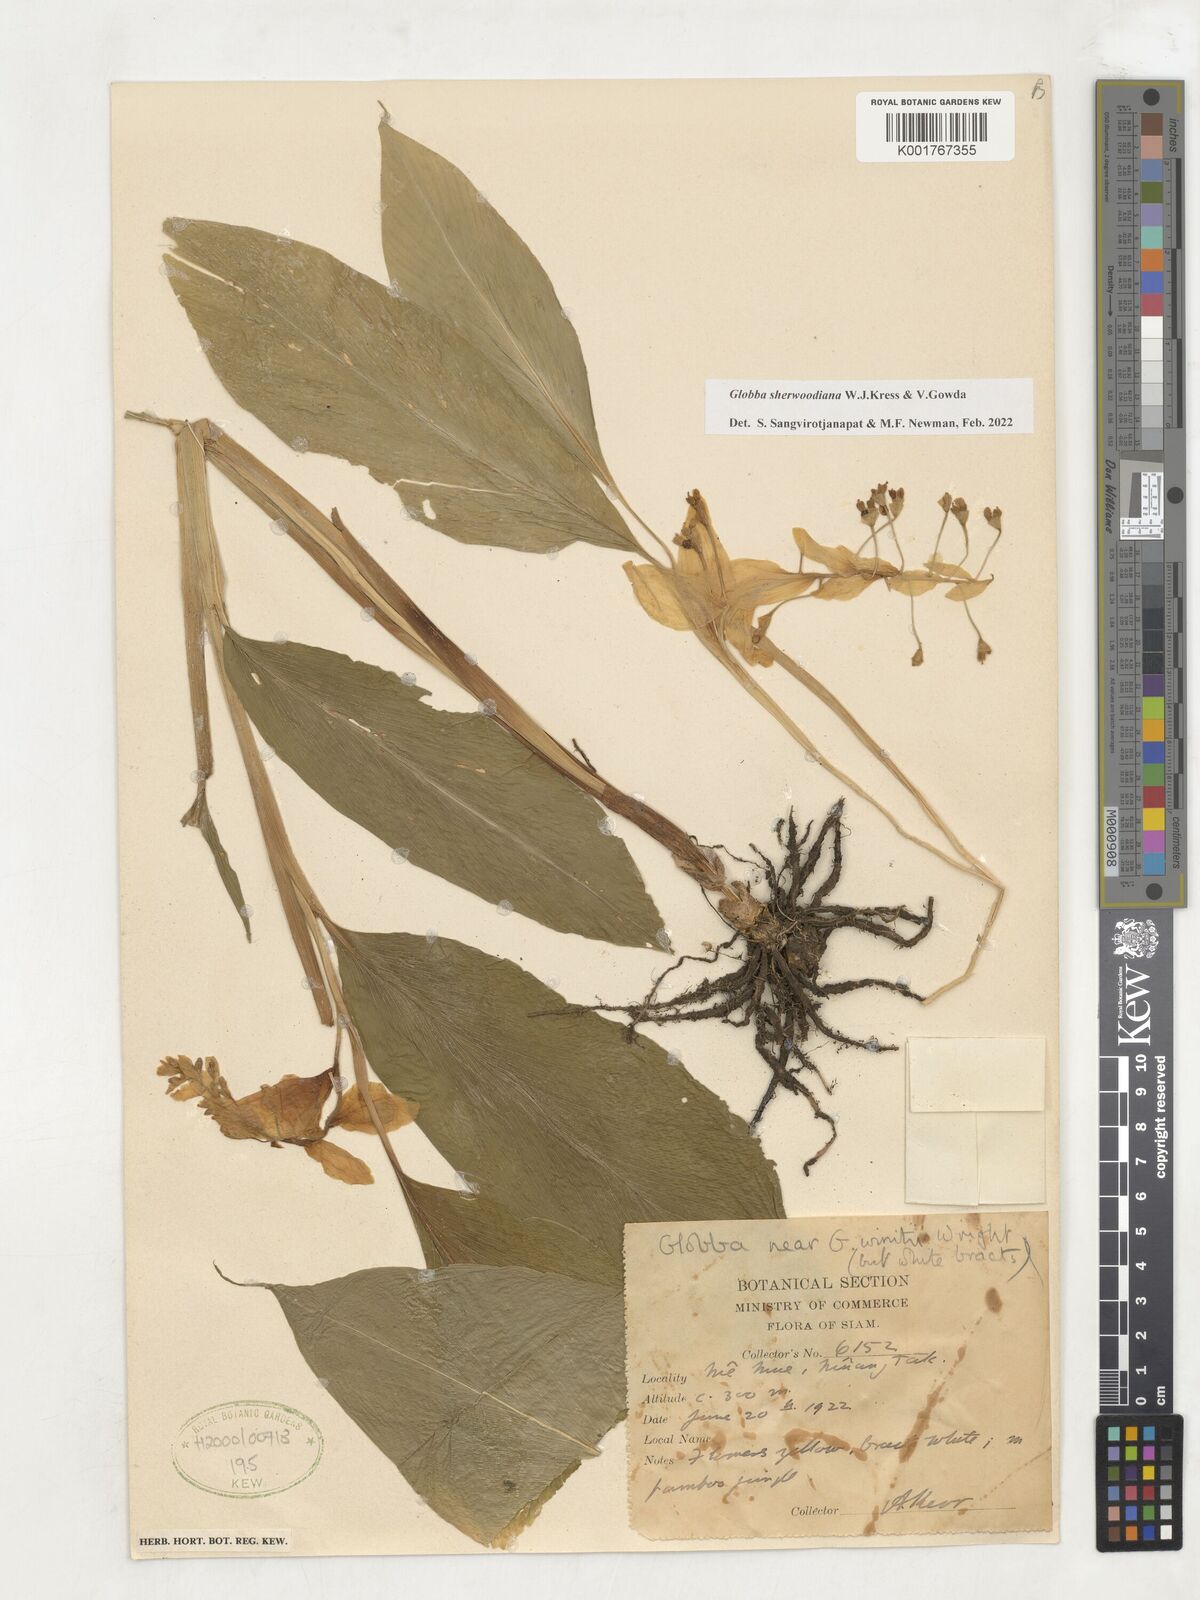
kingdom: Plantae
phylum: Tracheophyta
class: Liliopsida
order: Zingiberales
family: Zingiberaceae
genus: Globba
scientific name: Globba sherwoodiana
